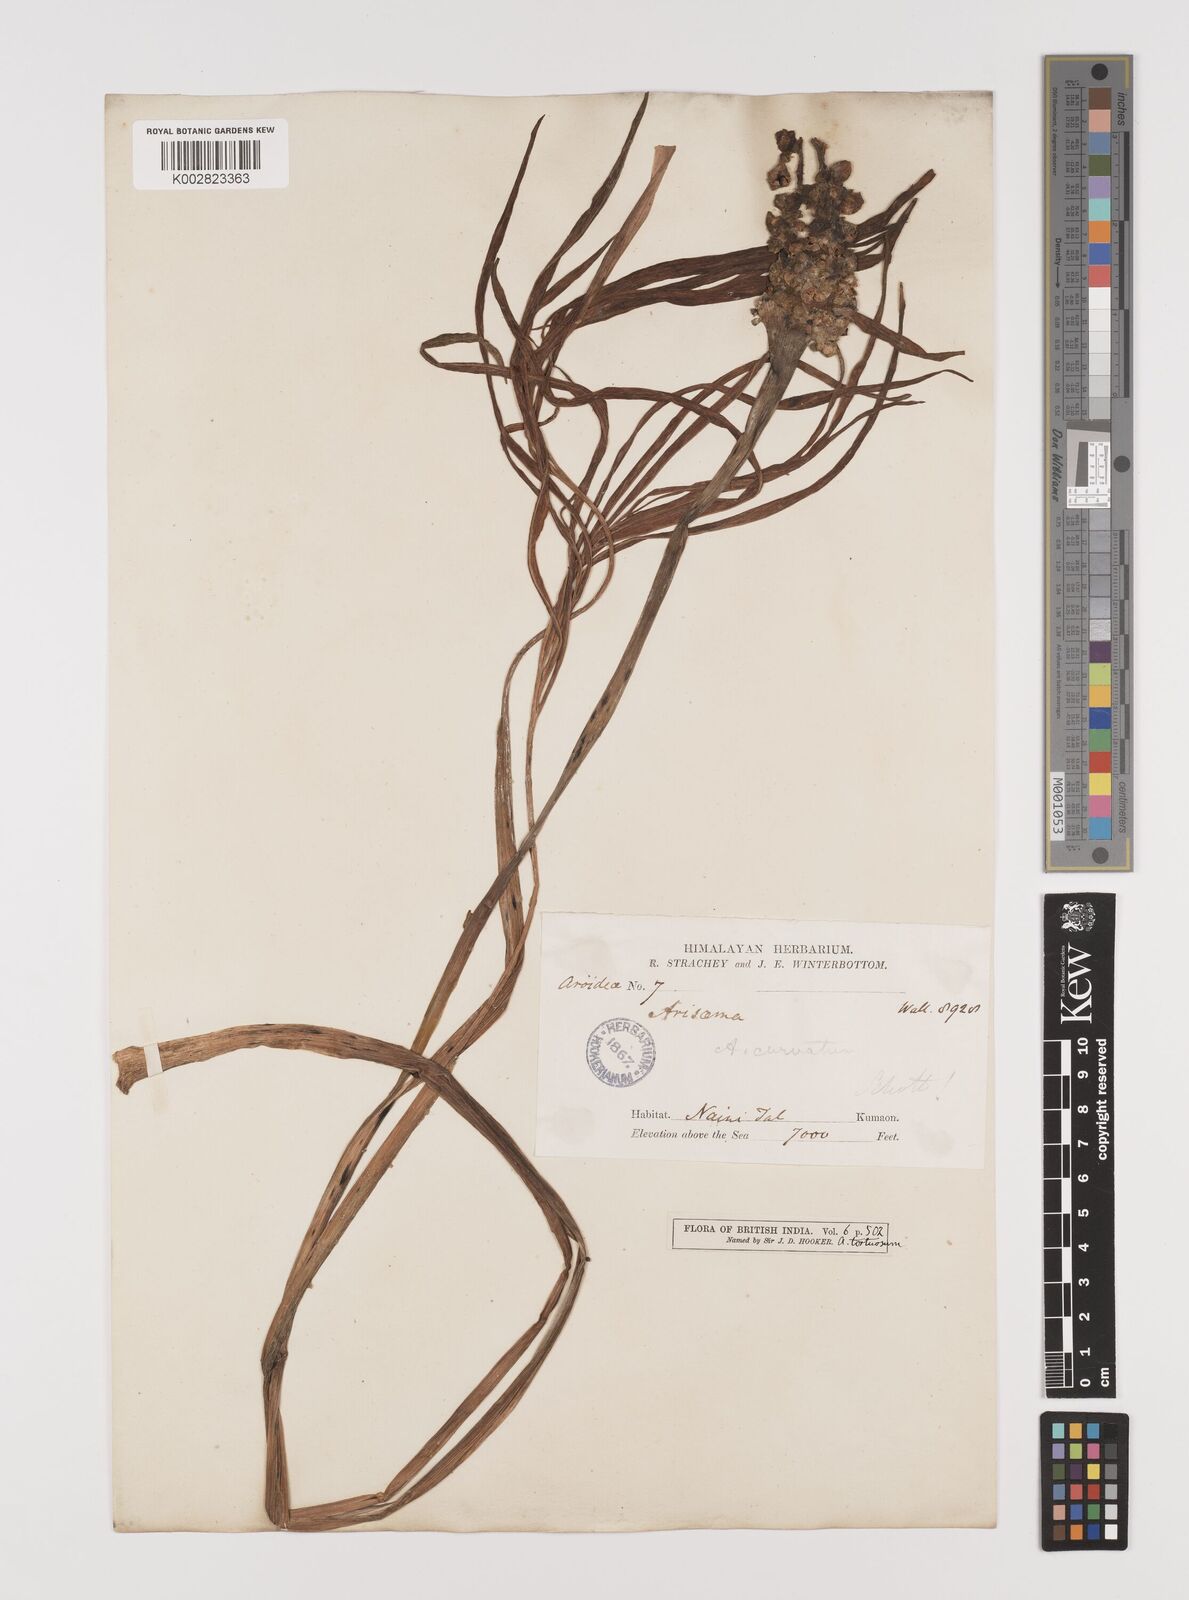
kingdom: Plantae
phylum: Tracheophyta
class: Liliopsida
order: Alismatales
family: Araceae
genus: Arisaema
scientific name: Arisaema tortuosum
